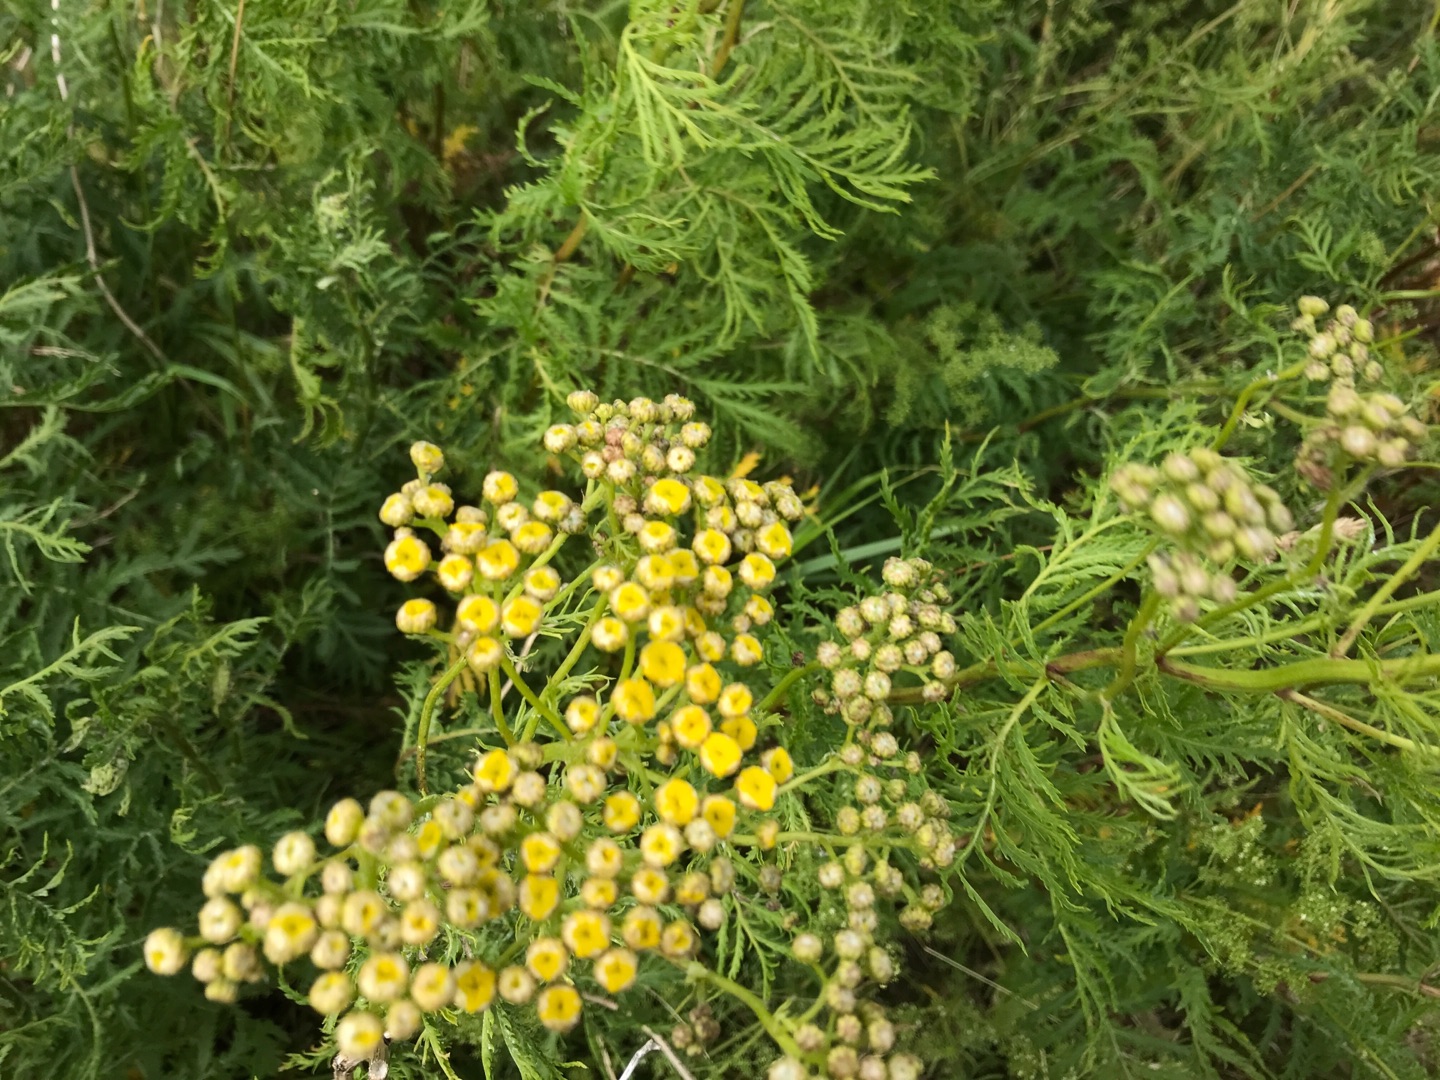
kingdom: Plantae
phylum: Tracheophyta
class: Magnoliopsida
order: Asterales
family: Asteraceae
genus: Tanacetum
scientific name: Tanacetum vulgare
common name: Rejnfan
